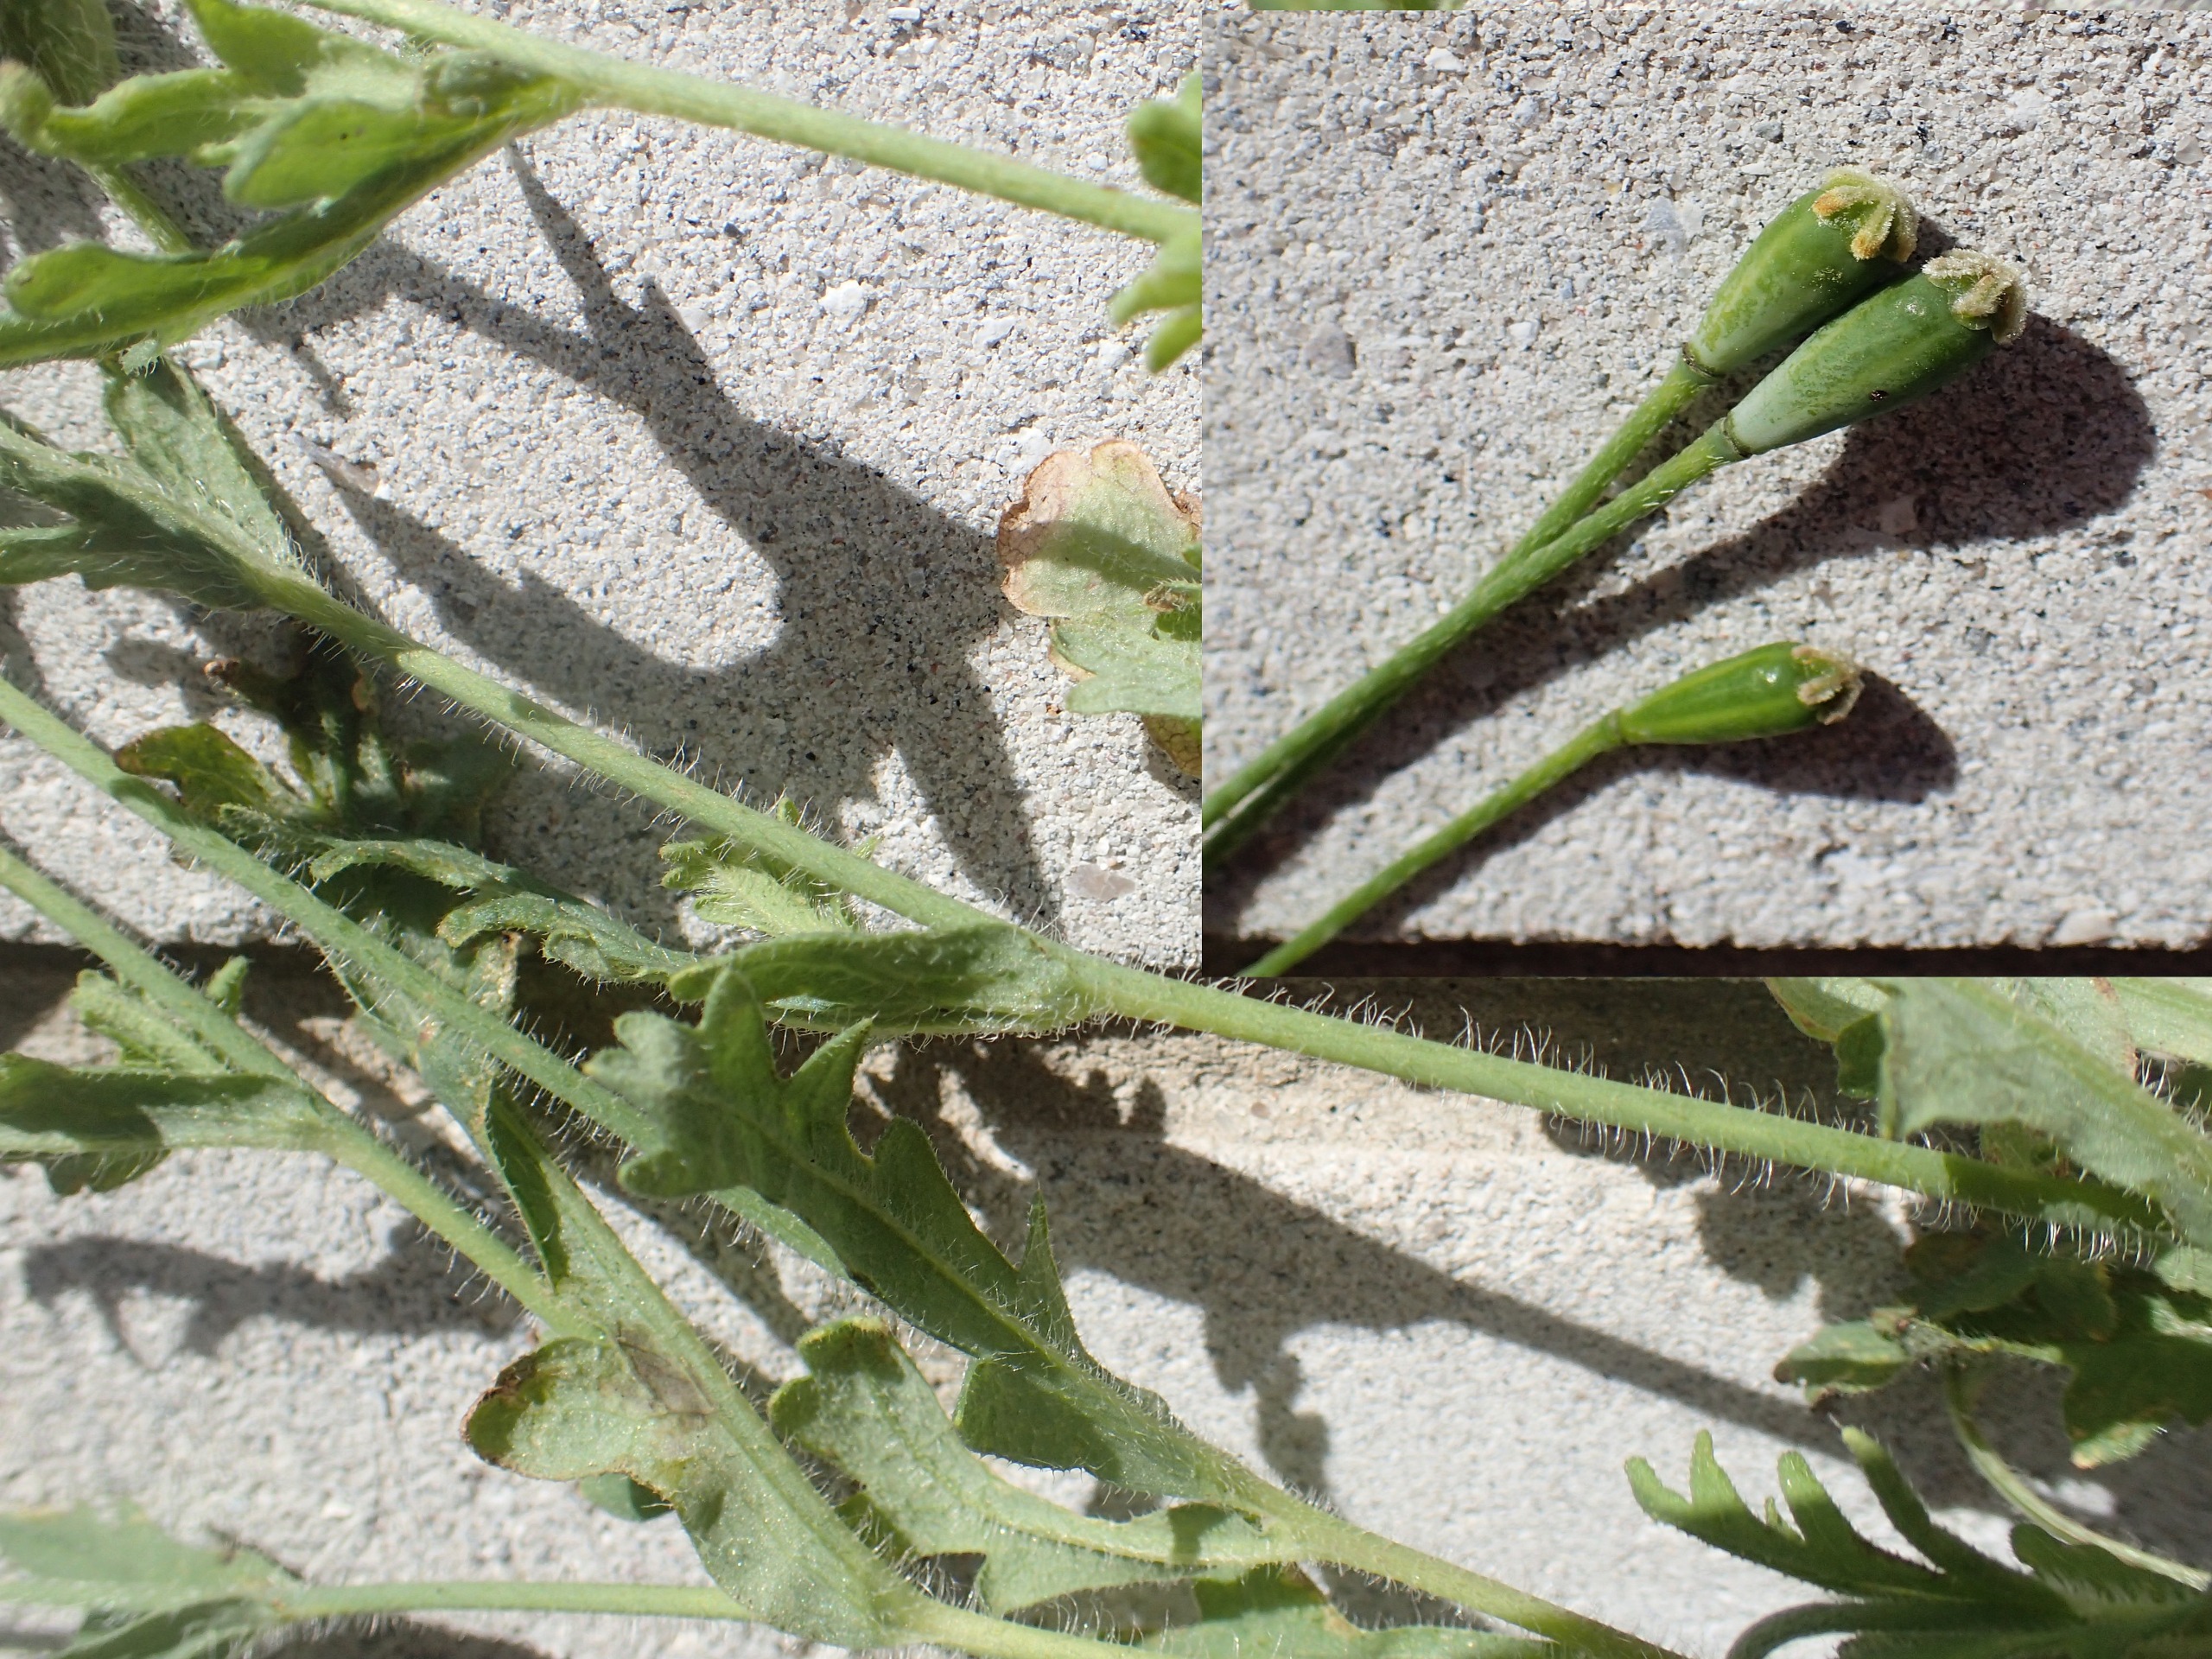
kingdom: Plantae
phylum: Tracheophyta
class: Magnoliopsida
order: Ranunculales
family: Papaveraceae
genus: Papaver
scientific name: Papaver dubium
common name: Gærde-valmue
